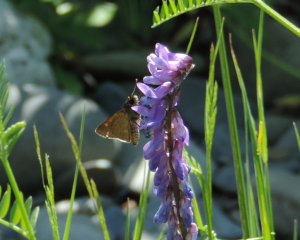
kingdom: Animalia
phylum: Arthropoda
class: Insecta
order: Lepidoptera
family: Hesperiidae
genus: Euphyes
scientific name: Euphyes vestris
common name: Dun Skipper
